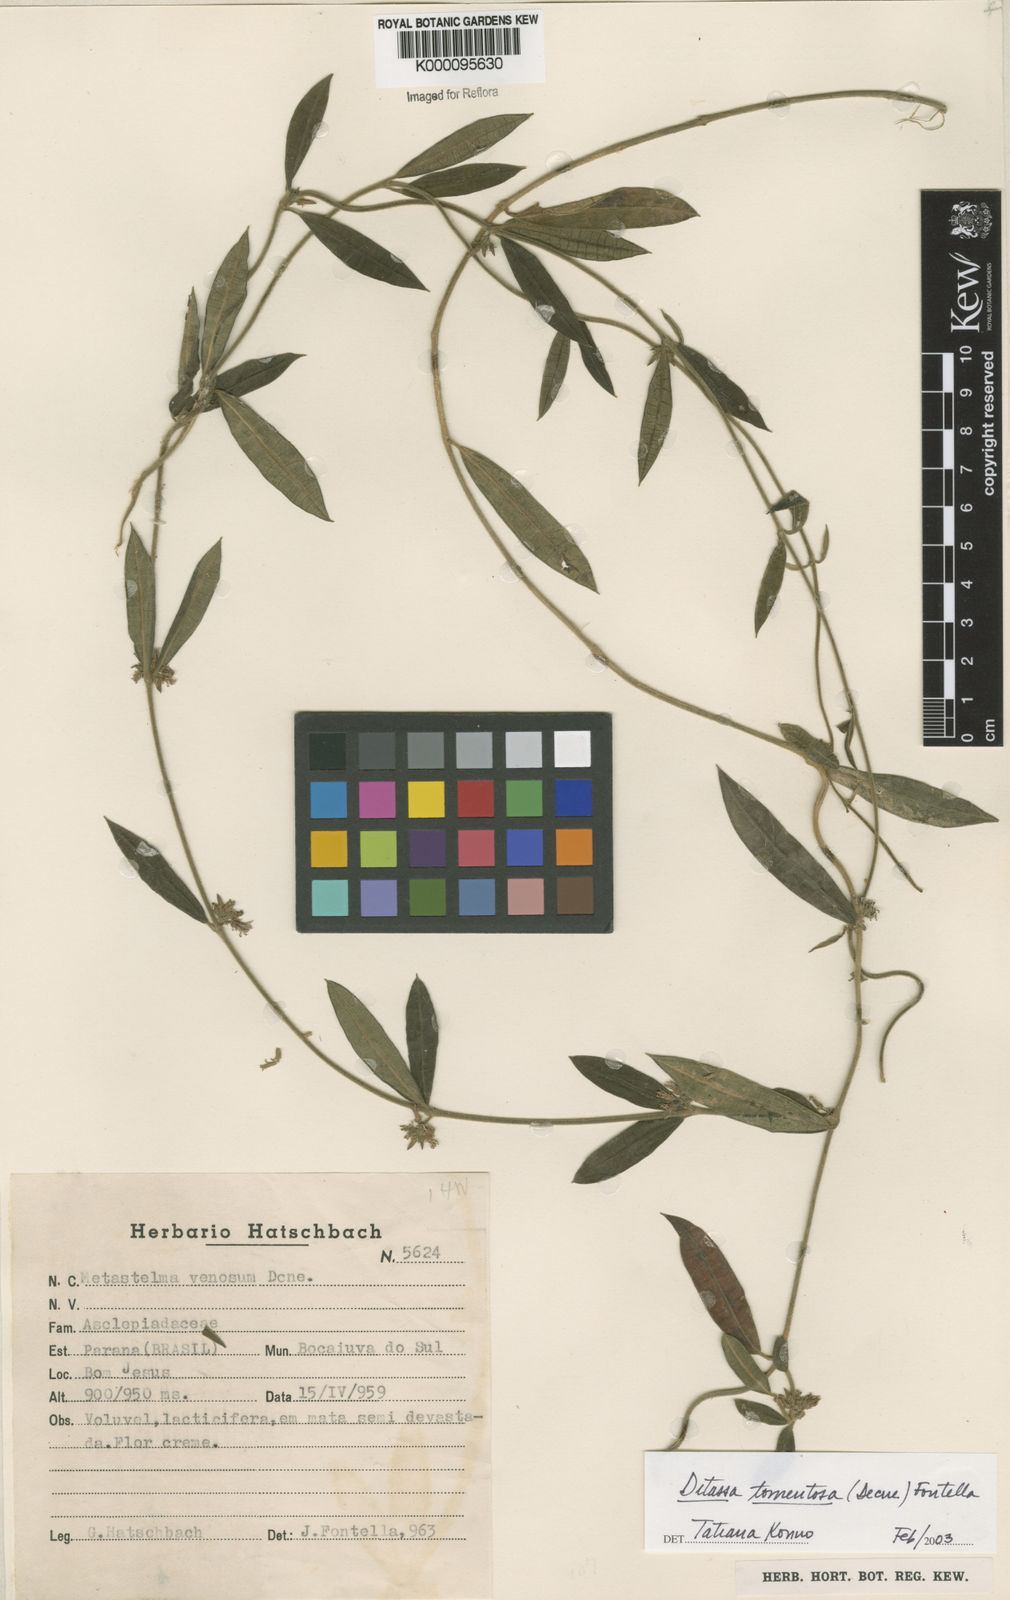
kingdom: Plantae
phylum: Tracheophyta
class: Magnoliopsida
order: Gentianales
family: Apocynaceae
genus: Ditassa
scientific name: Ditassa tomentosa
